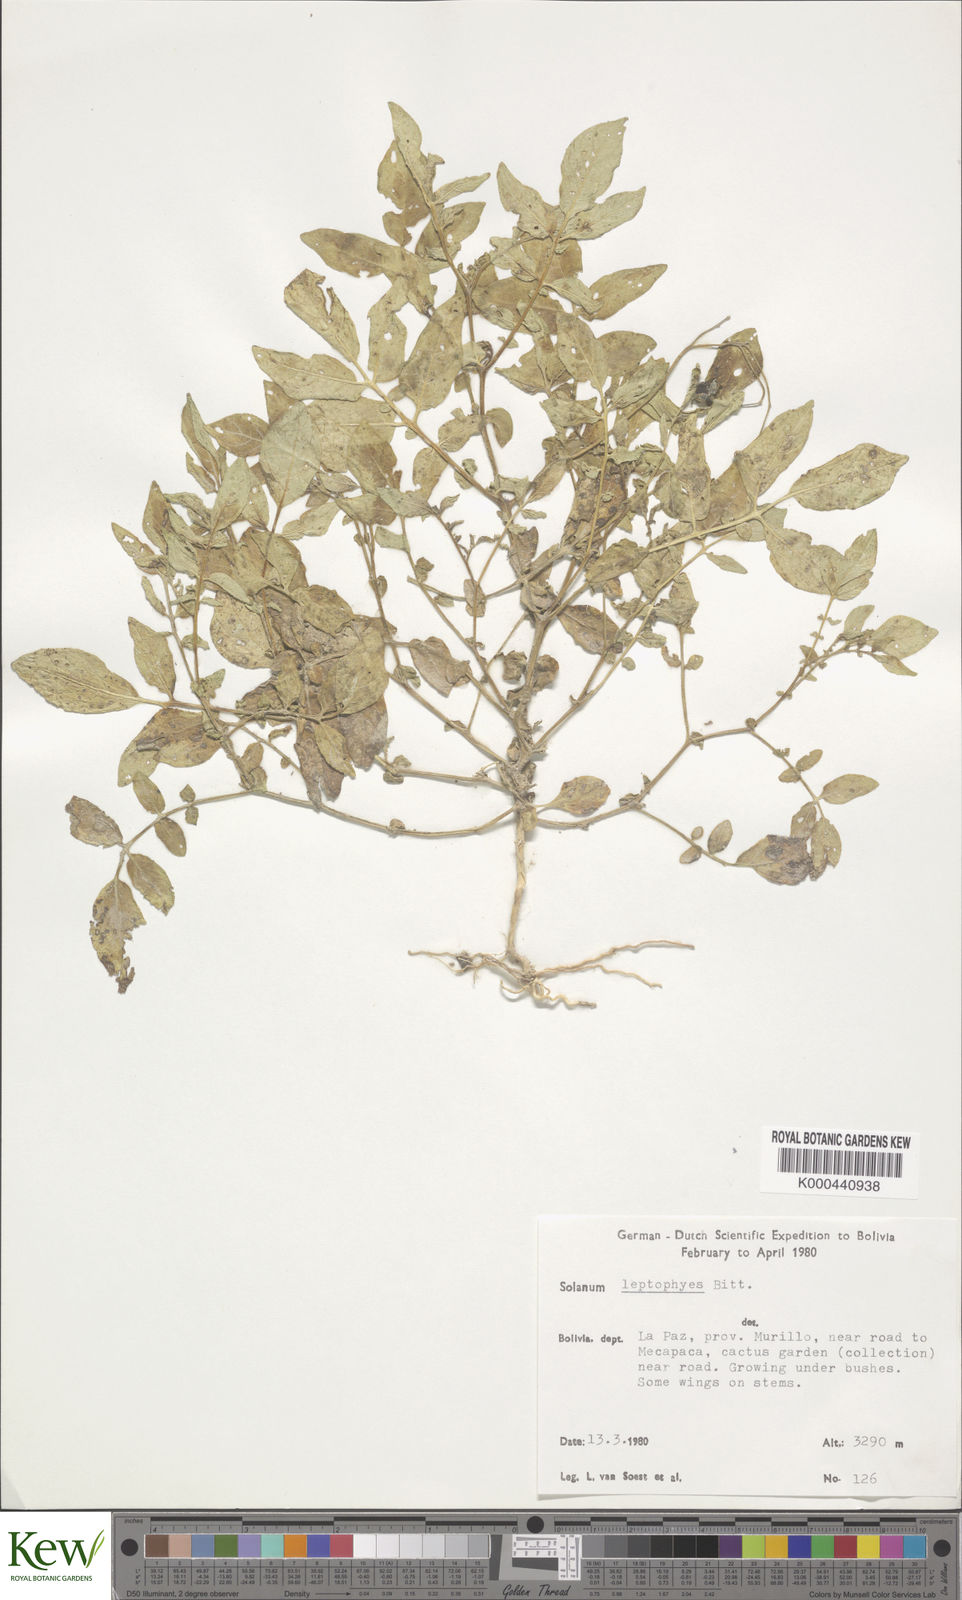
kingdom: Plantae
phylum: Tracheophyta
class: Magnoliopsida
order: Solanales
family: Solanaceae
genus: Solanum
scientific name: Solanum brevicaule
